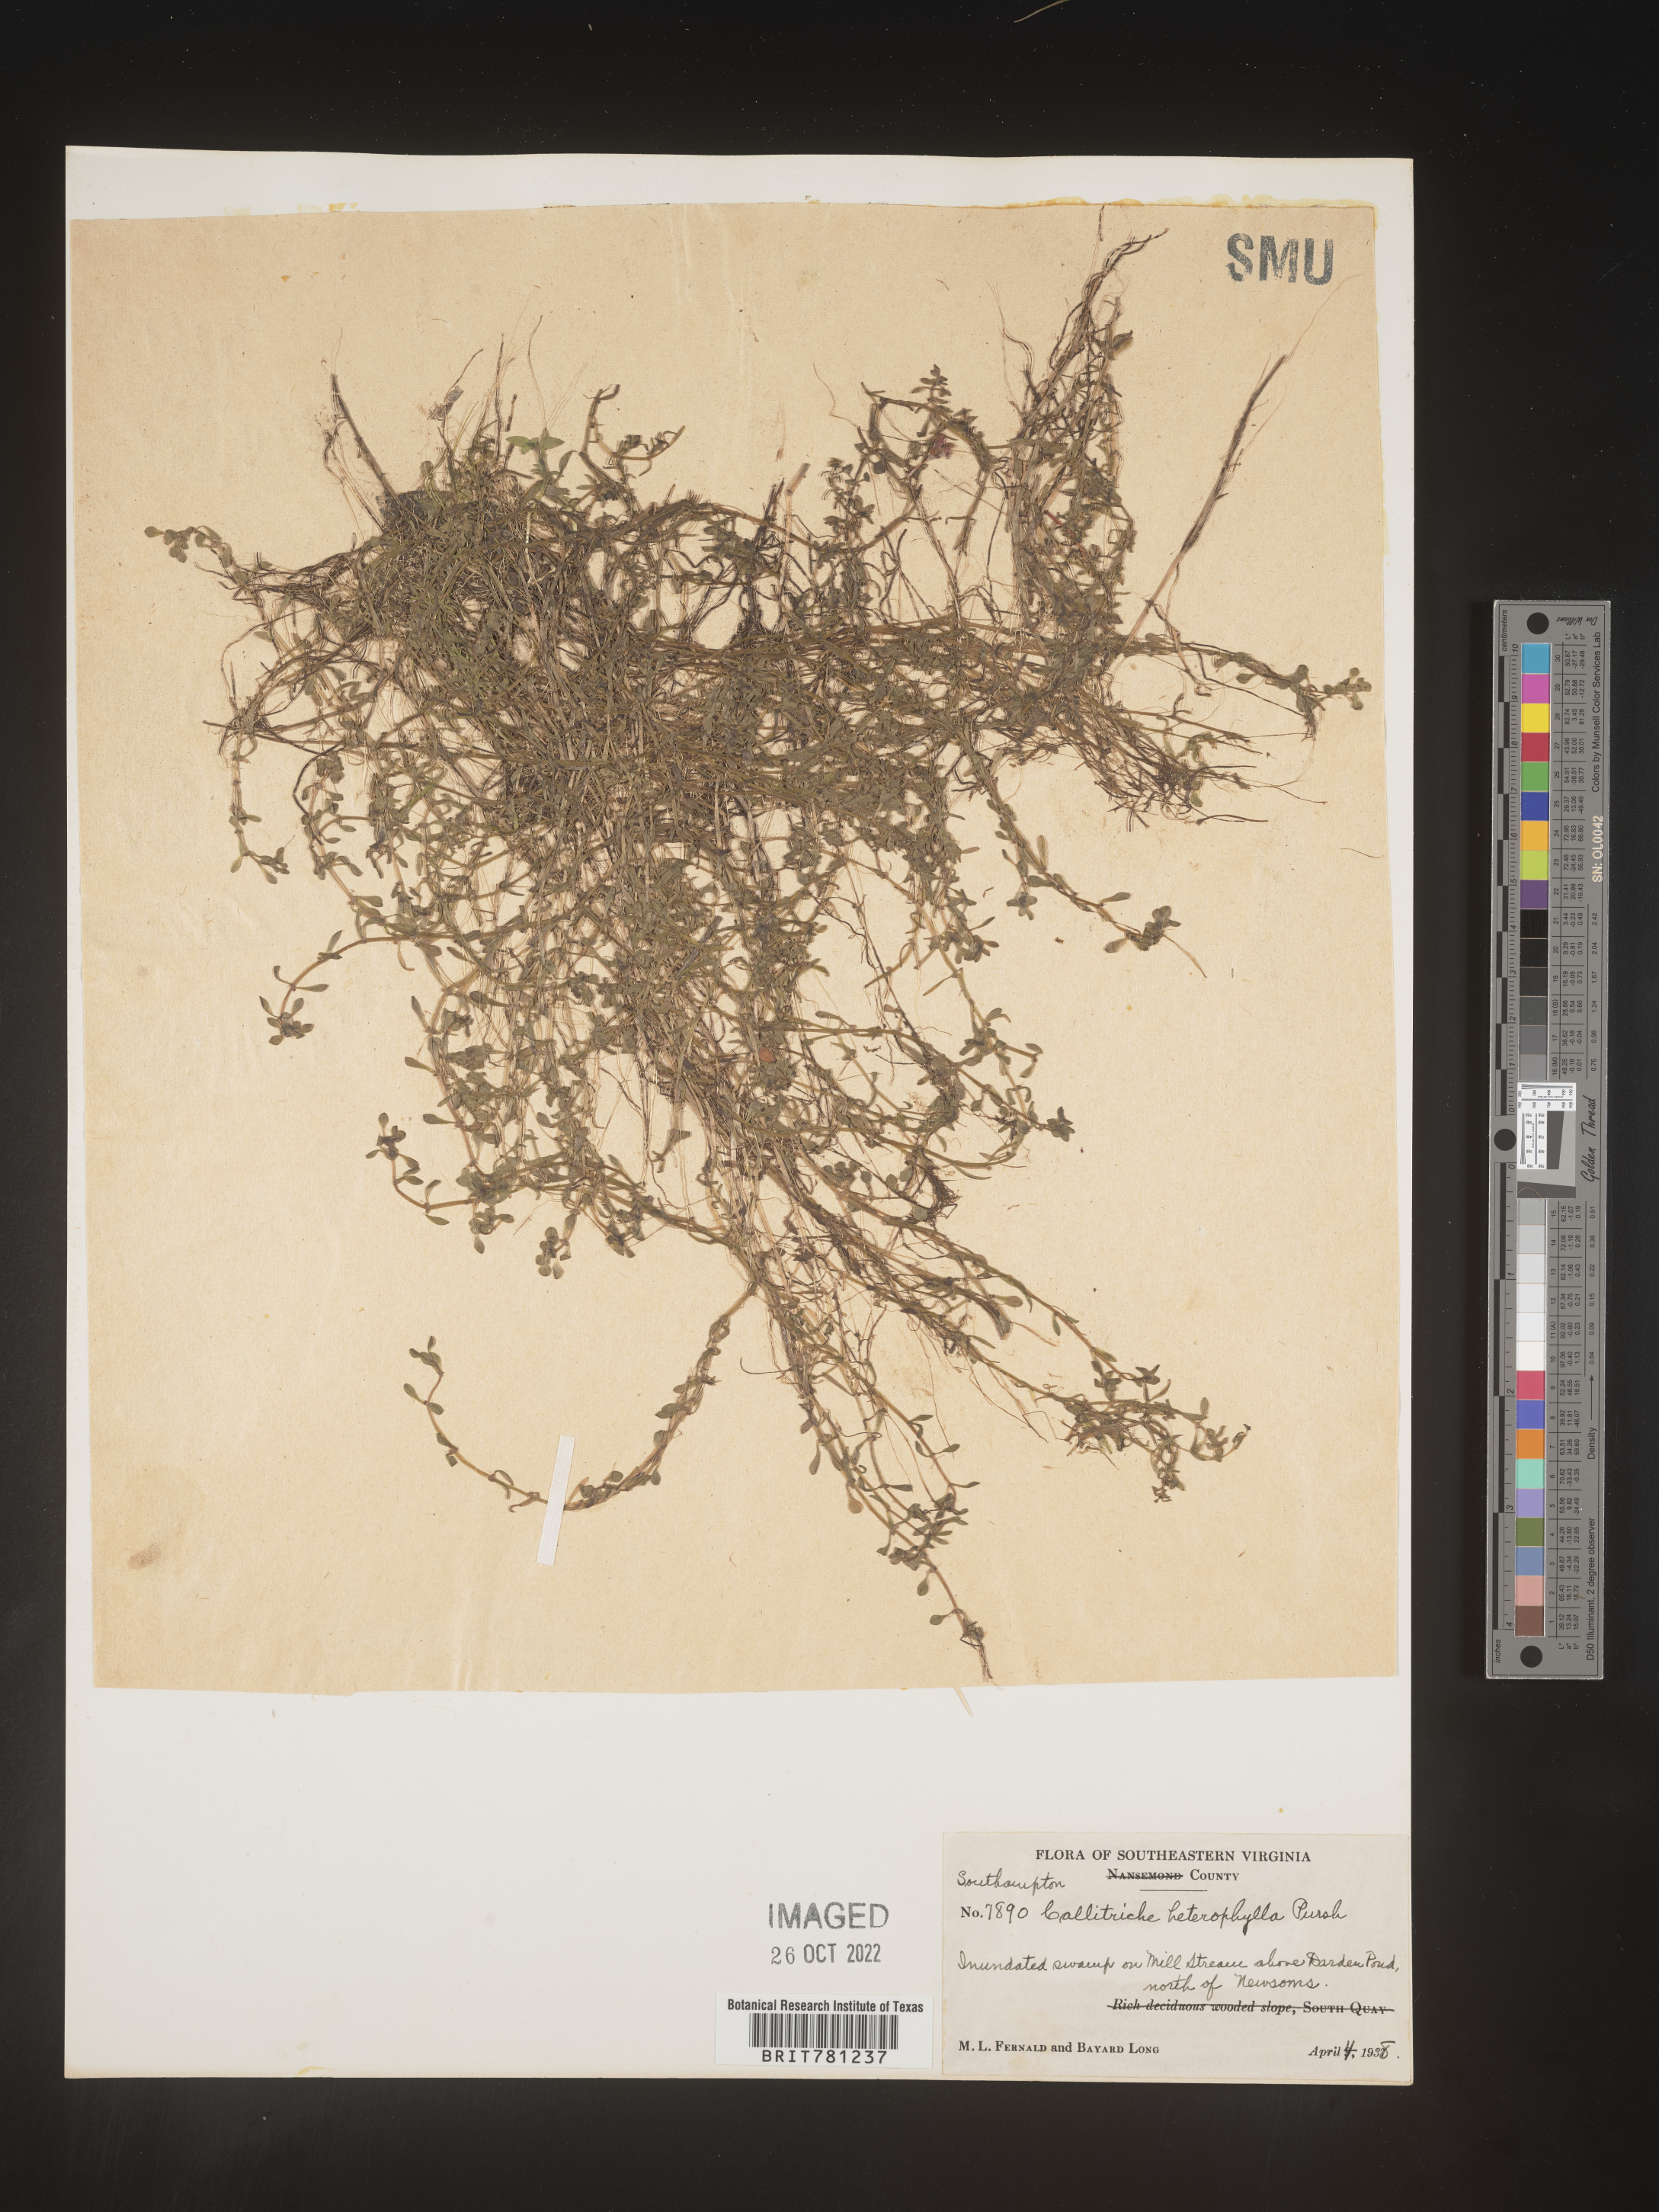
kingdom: Plantae
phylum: Tracheophyta
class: Magnoliopsida
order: Lamiales
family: Plantaginaceae
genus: Callitriche
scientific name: Callitriche heterophylla
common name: Two-headed water-starwort
